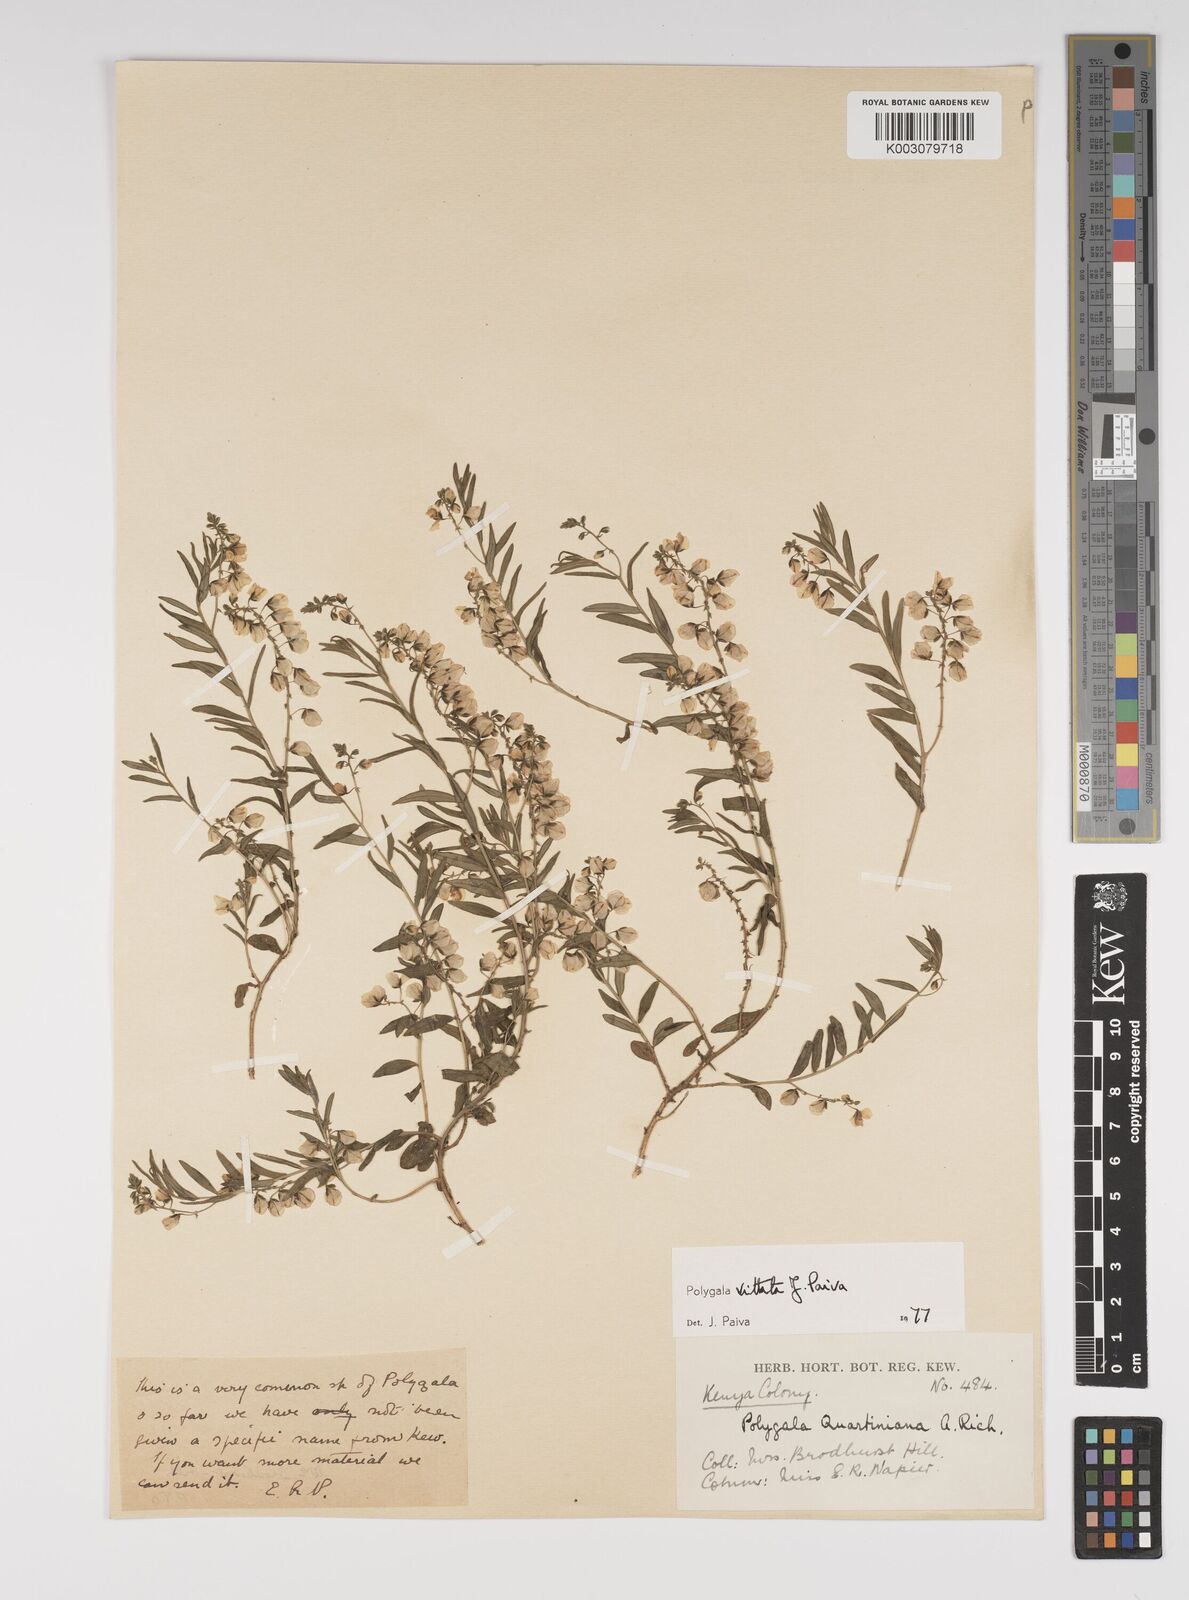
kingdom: Plantae
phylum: Tracheophyta
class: Magnoliopsida
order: Fabales
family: Polygalaceae
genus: Polygala
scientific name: Polygala vittata
